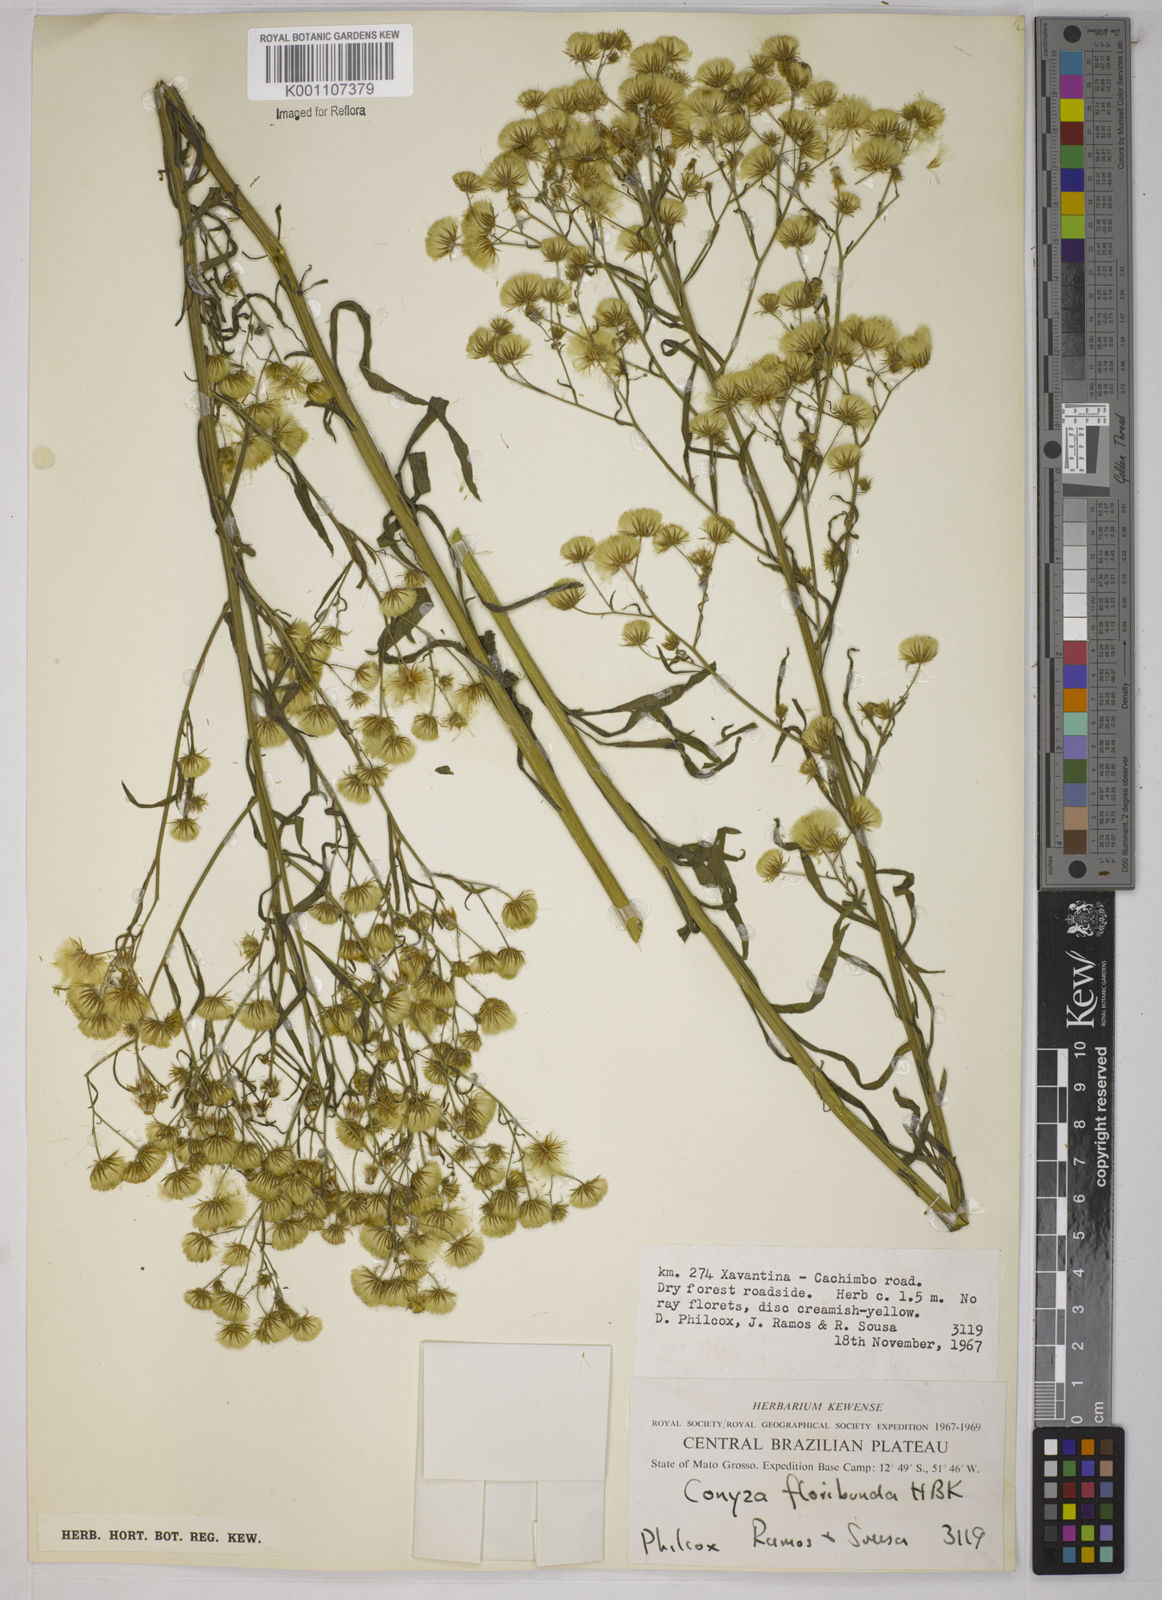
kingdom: Plantae
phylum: Tracheophyta
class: Magnoliopsida
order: Asterales
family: Asteraceae
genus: Erigeron
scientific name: Erigeron sumatrensis
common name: Daisy
